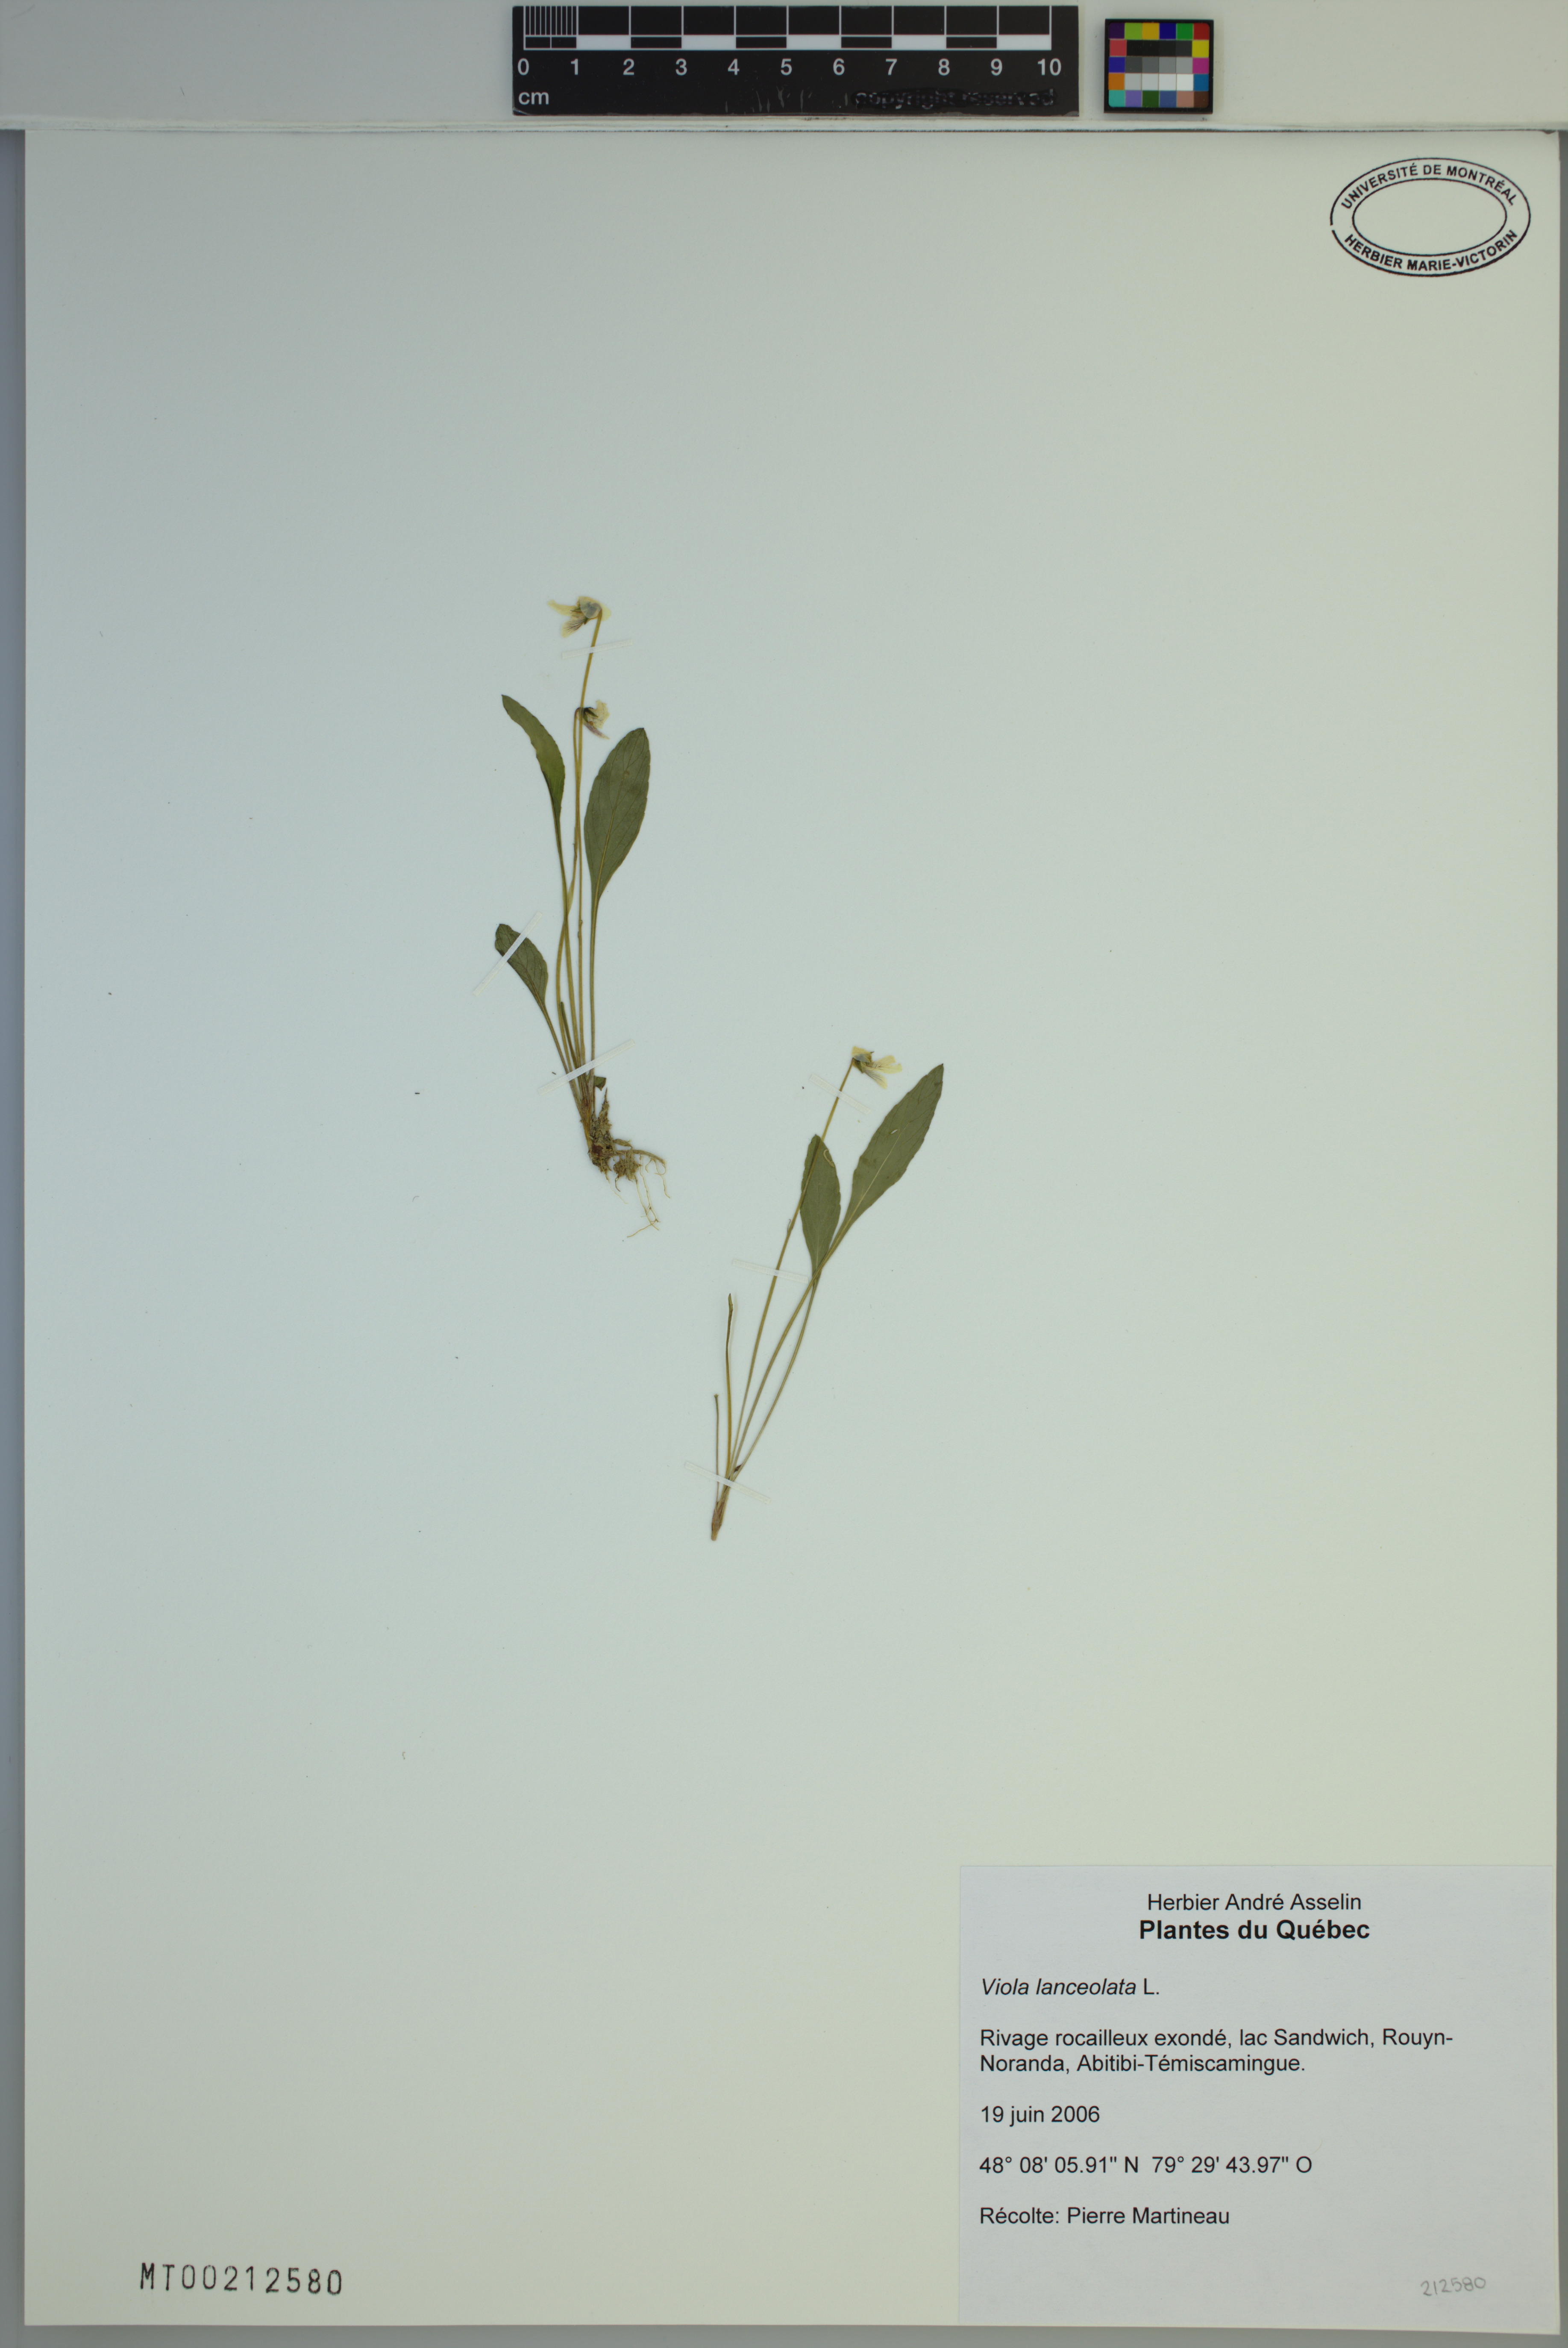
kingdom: Plantae
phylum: Tracheophyta
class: Magnoliopsida
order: Malpighiales
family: Violaceae
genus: Viola
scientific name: Viola lanceolata
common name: Bog white violet
